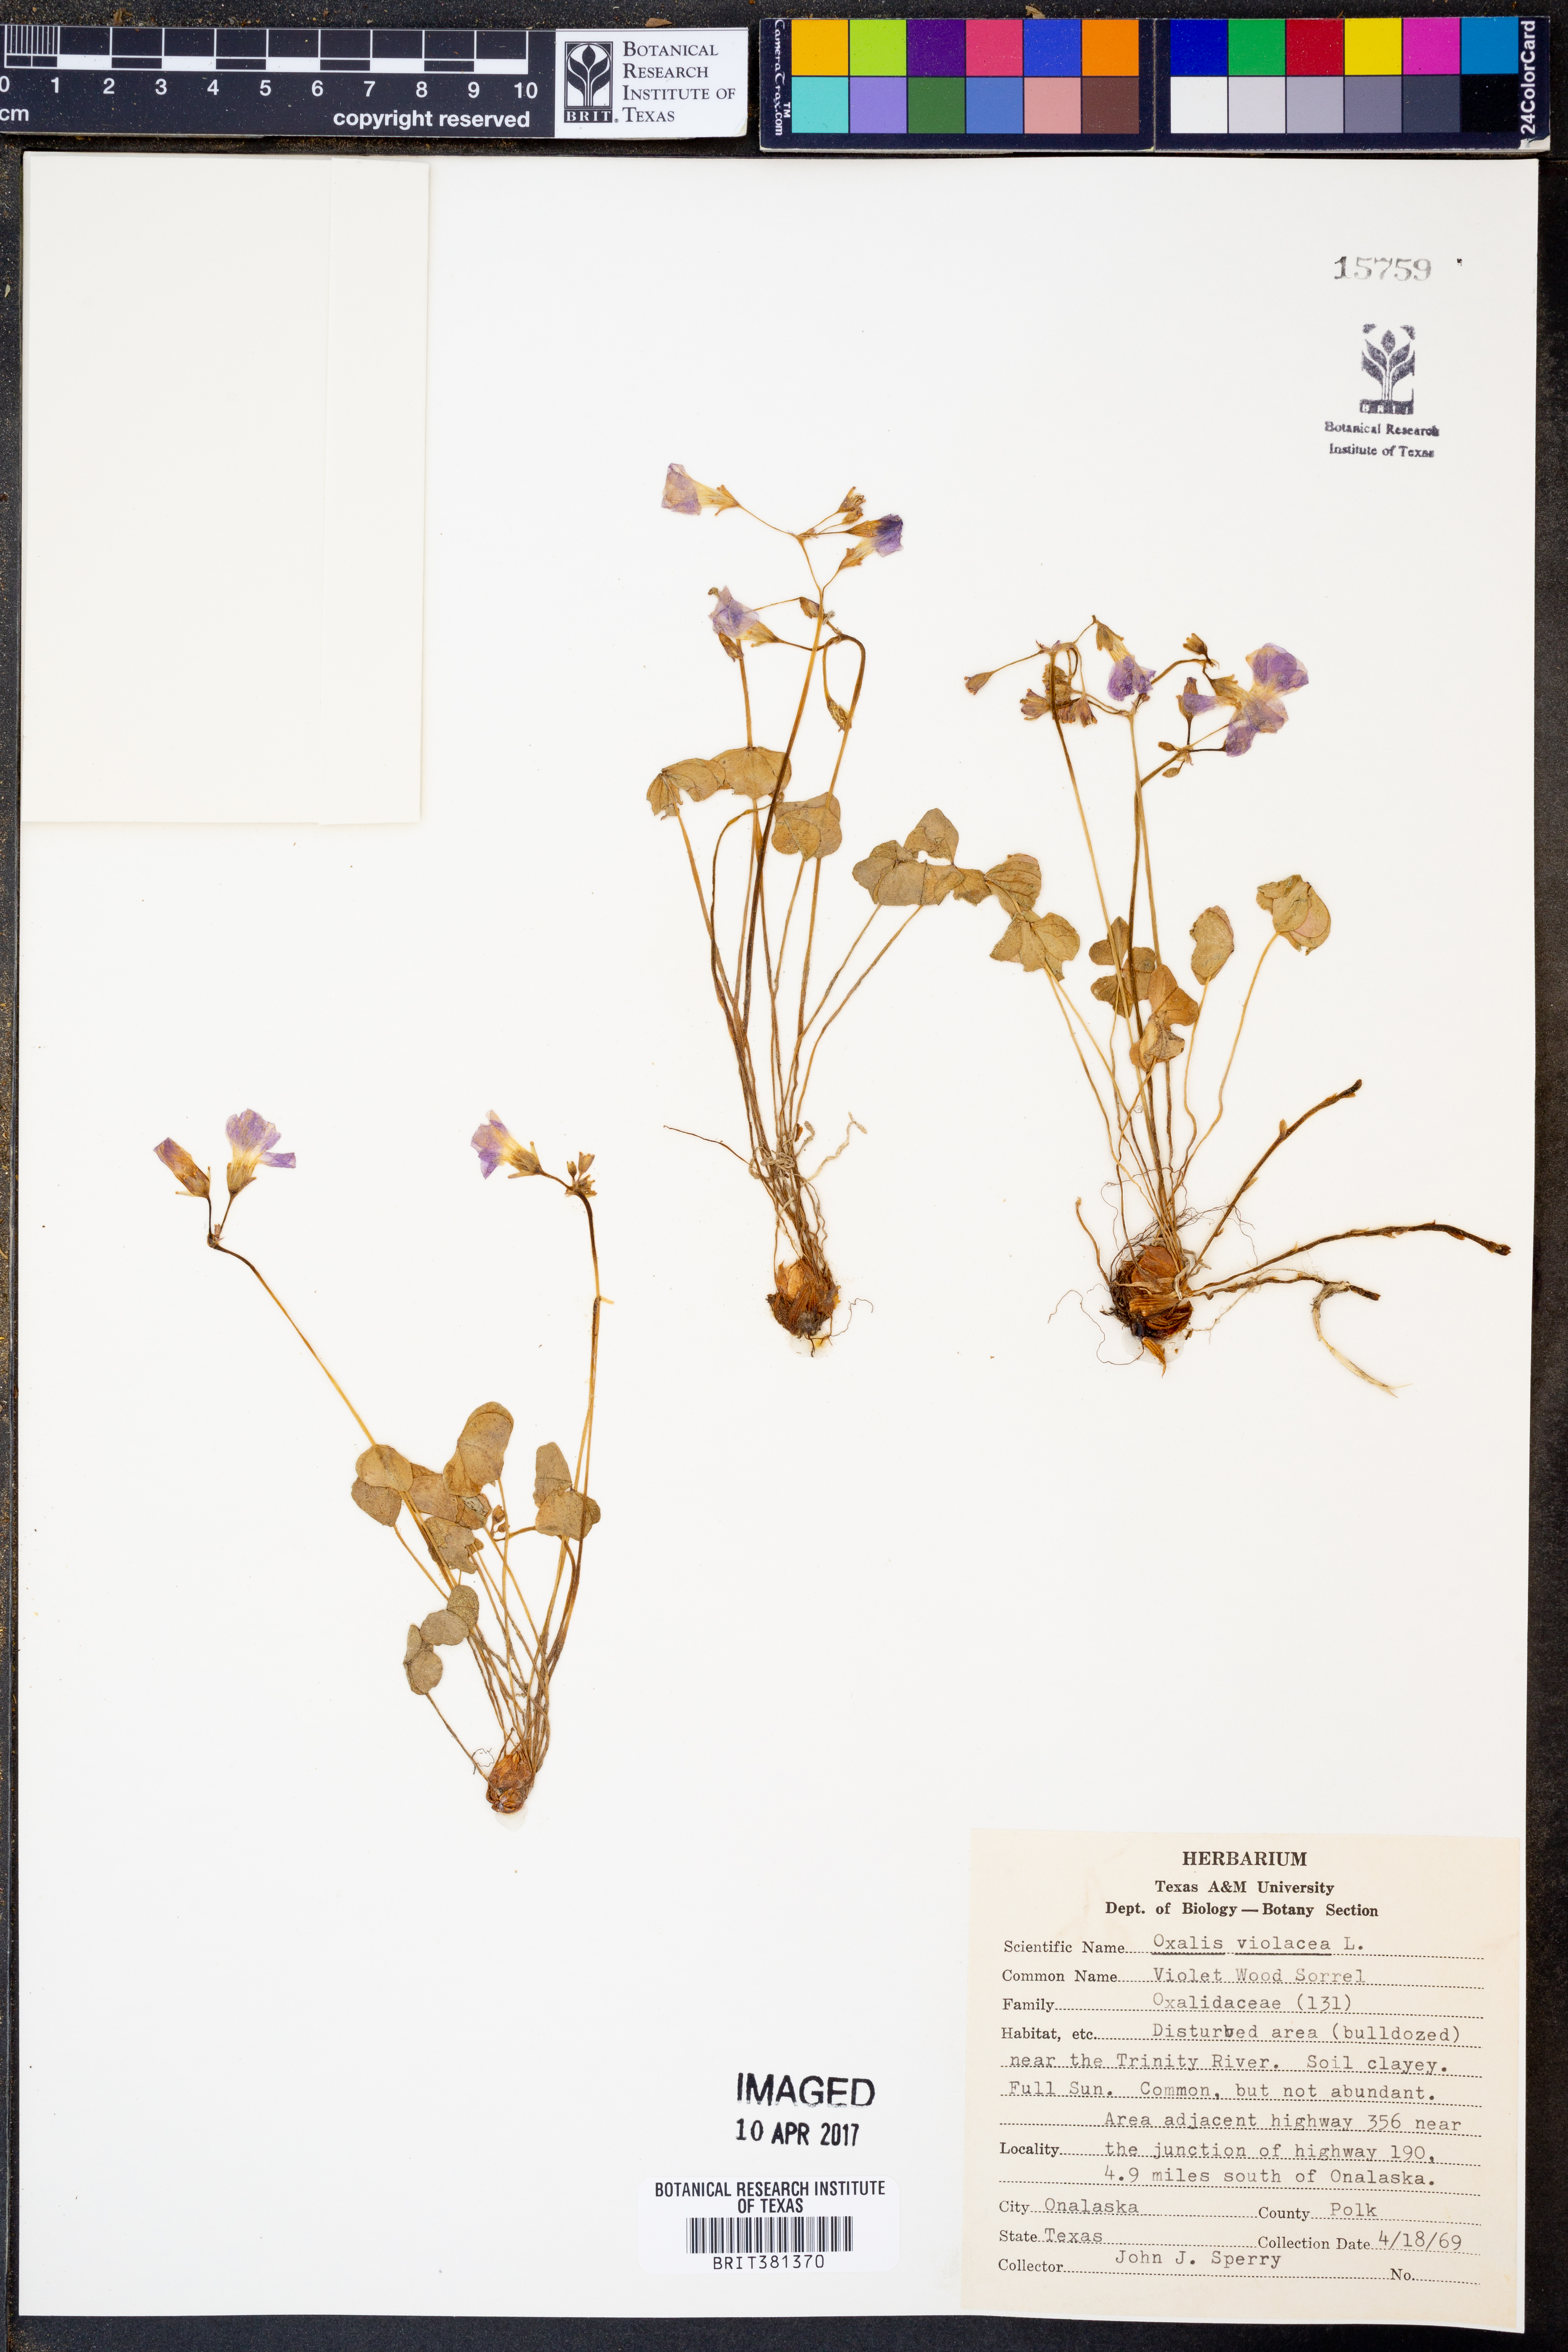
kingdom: Plantae
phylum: Tracheophyta
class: Magnoliopsida
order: Oxalidales
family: Oxalidaceae
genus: Oxalis
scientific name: Oxalis violacea
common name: Violet wood-sorrel
